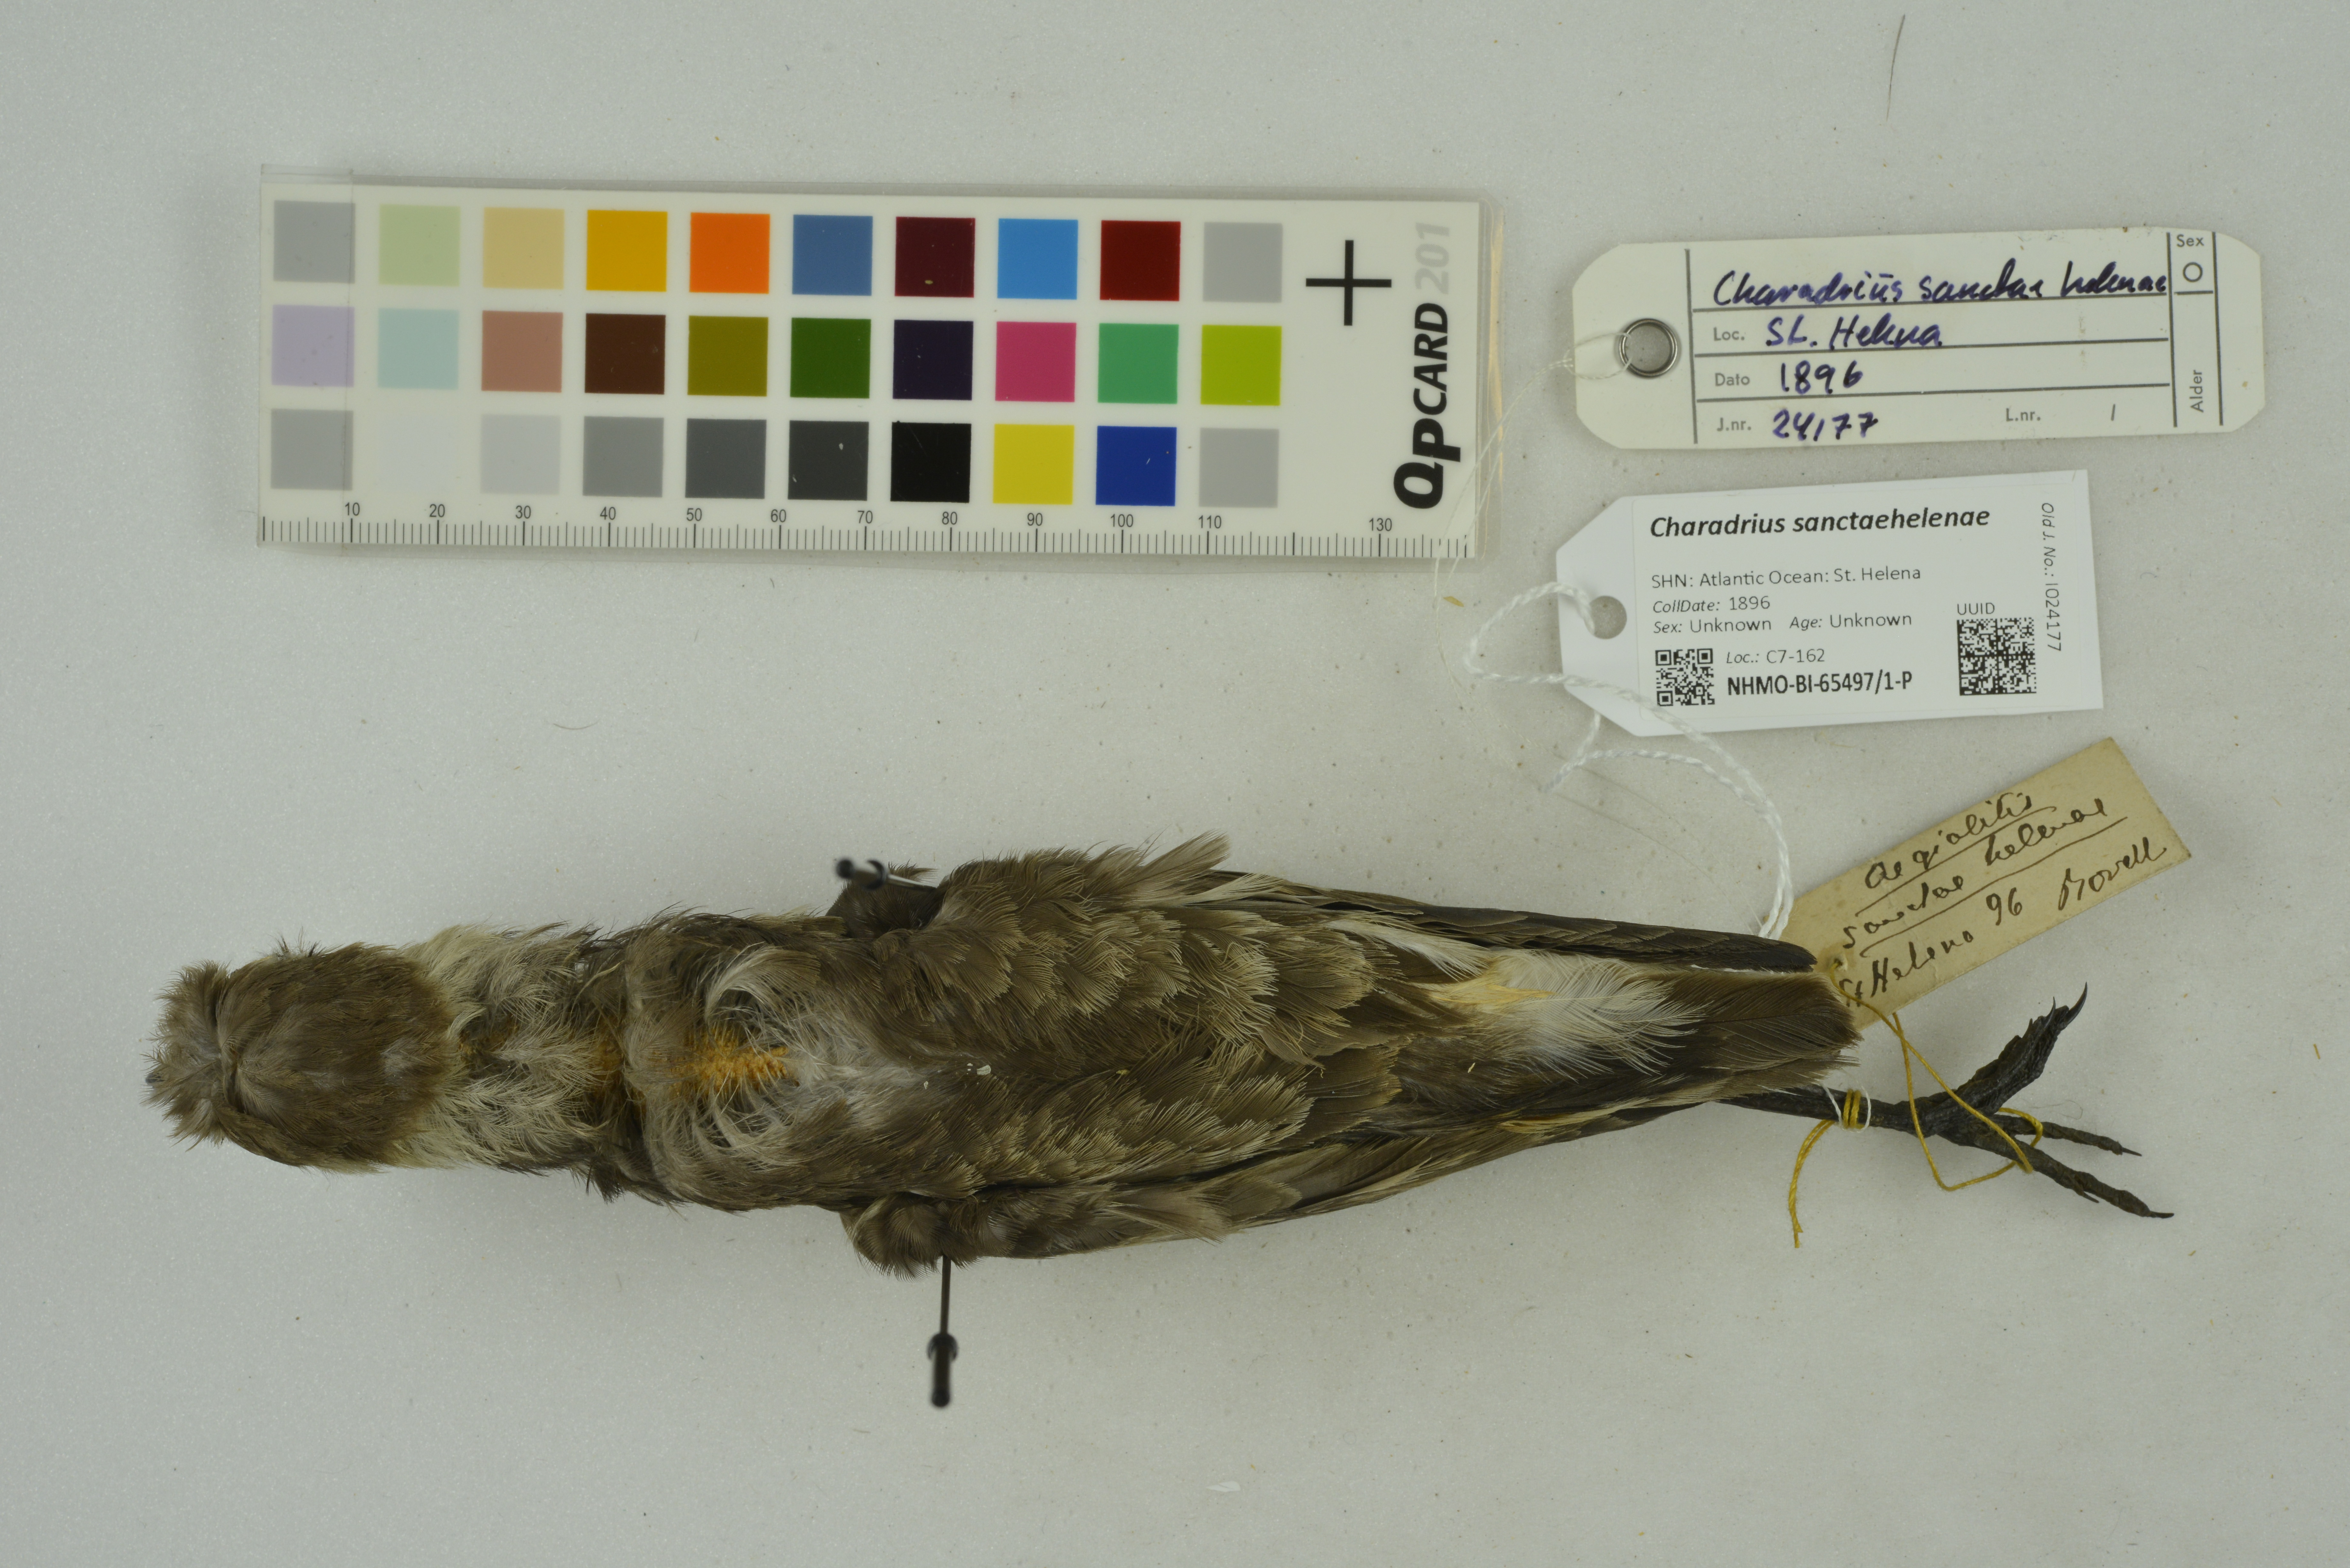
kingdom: Animalia
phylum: Chordata
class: Aves
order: Charadriiformes
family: Charadriidae
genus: Charadrius
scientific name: Charadrius sanctaehelenae
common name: St. helena plover
